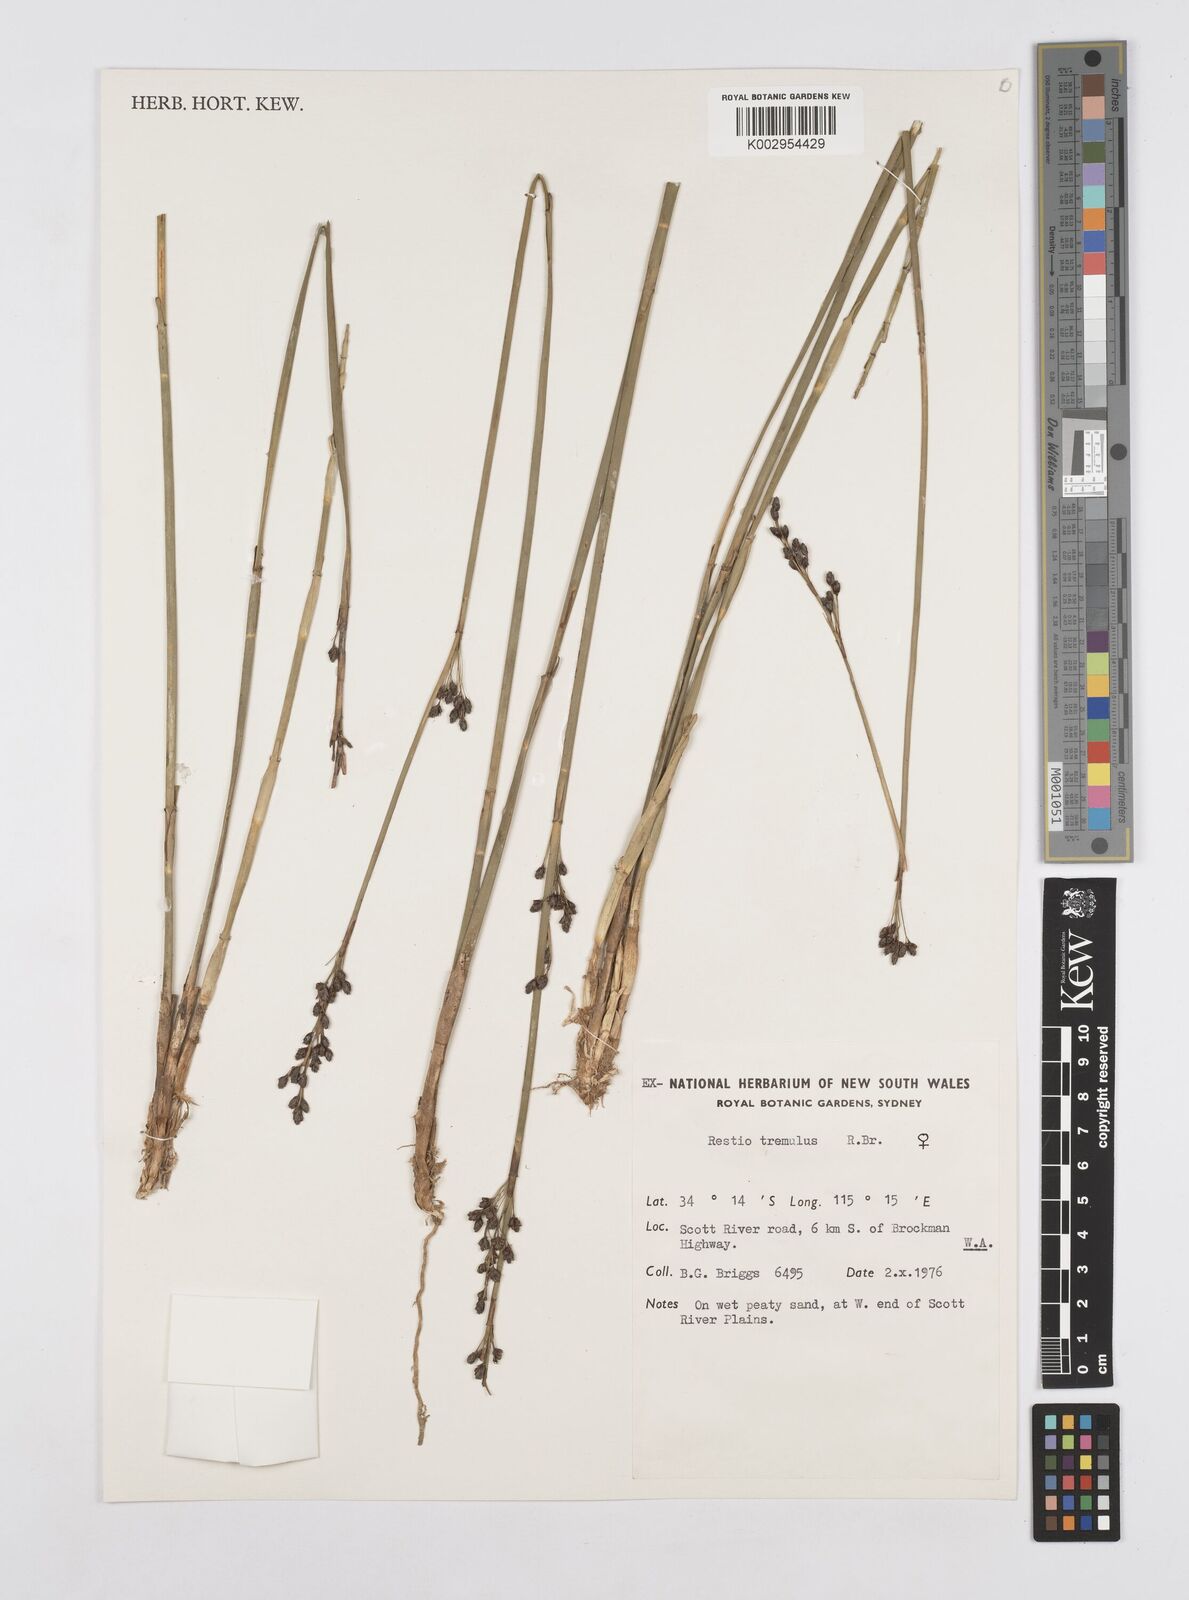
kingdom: Plantae
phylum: Tracheophyta
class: Liliopsida
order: Poales
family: Restionaceae
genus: Tremulina
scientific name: Tremulina tremula
